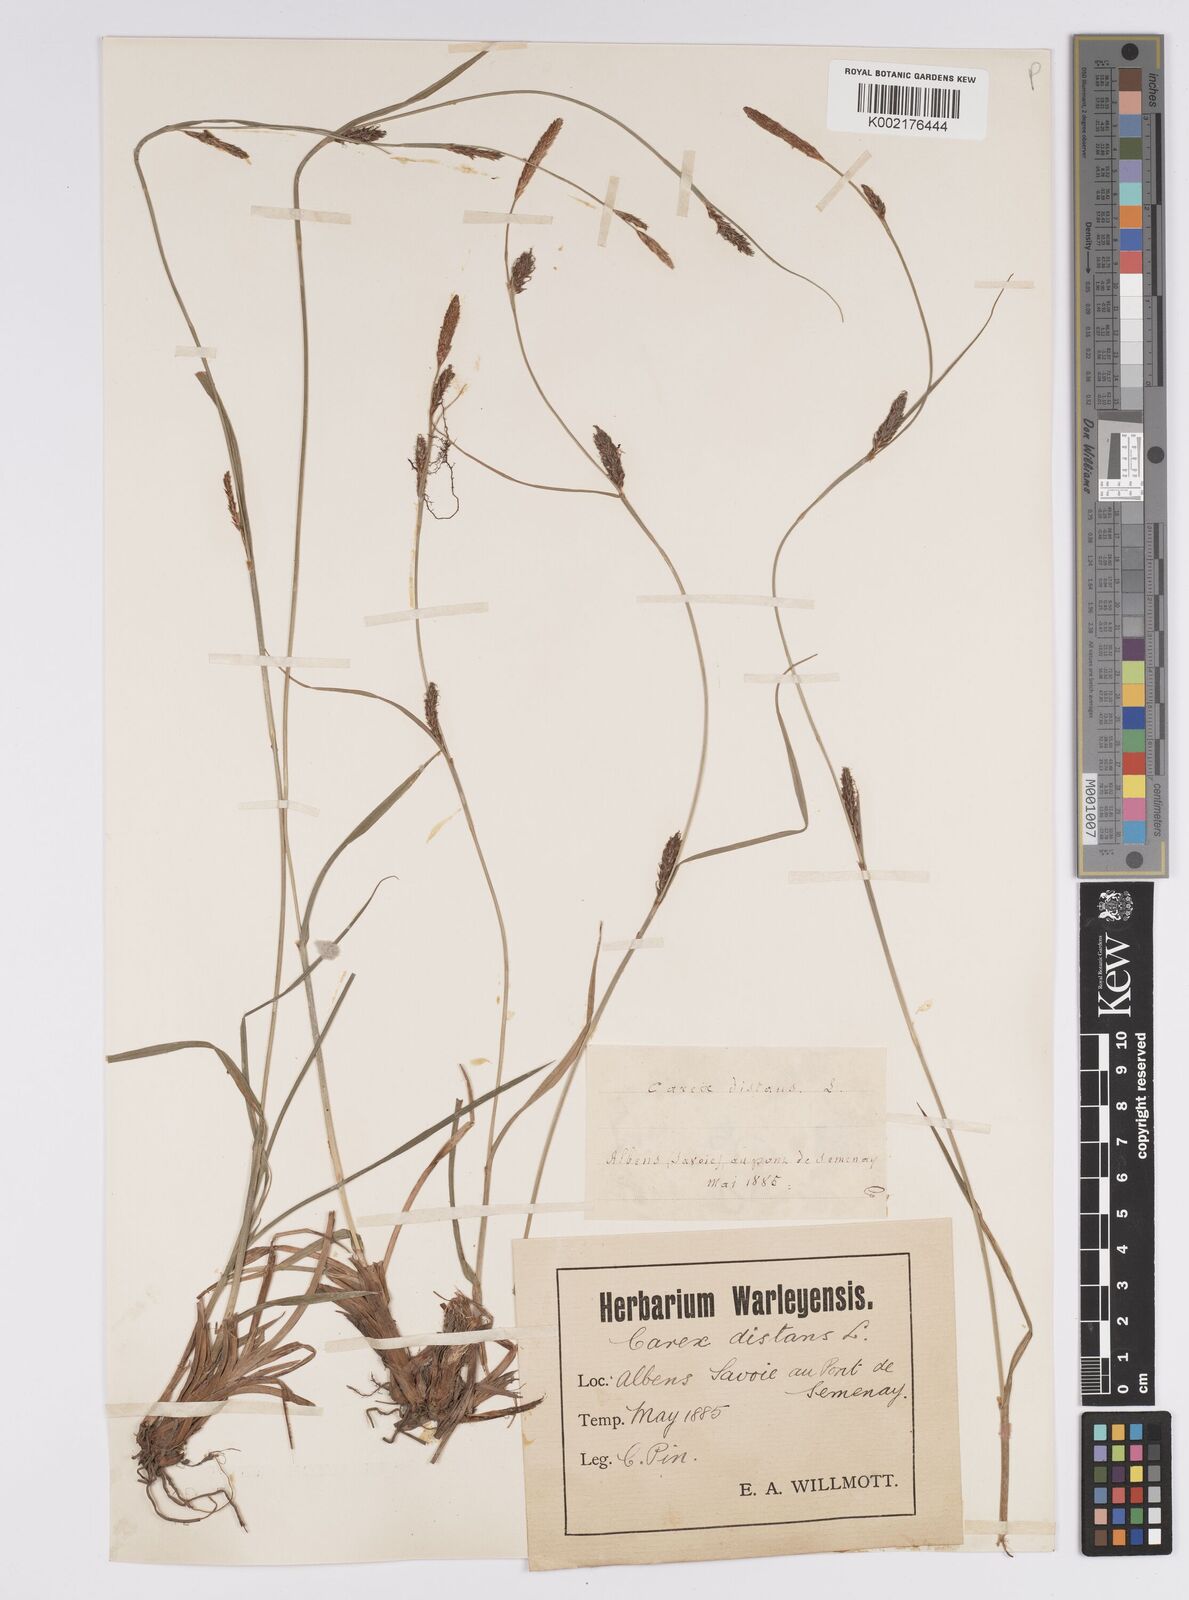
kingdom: Plantae
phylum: Tracheophyta
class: Liliopsida
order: Poales
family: Cyperaceae
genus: Carex
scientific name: Carex distans
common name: Distant sedge
